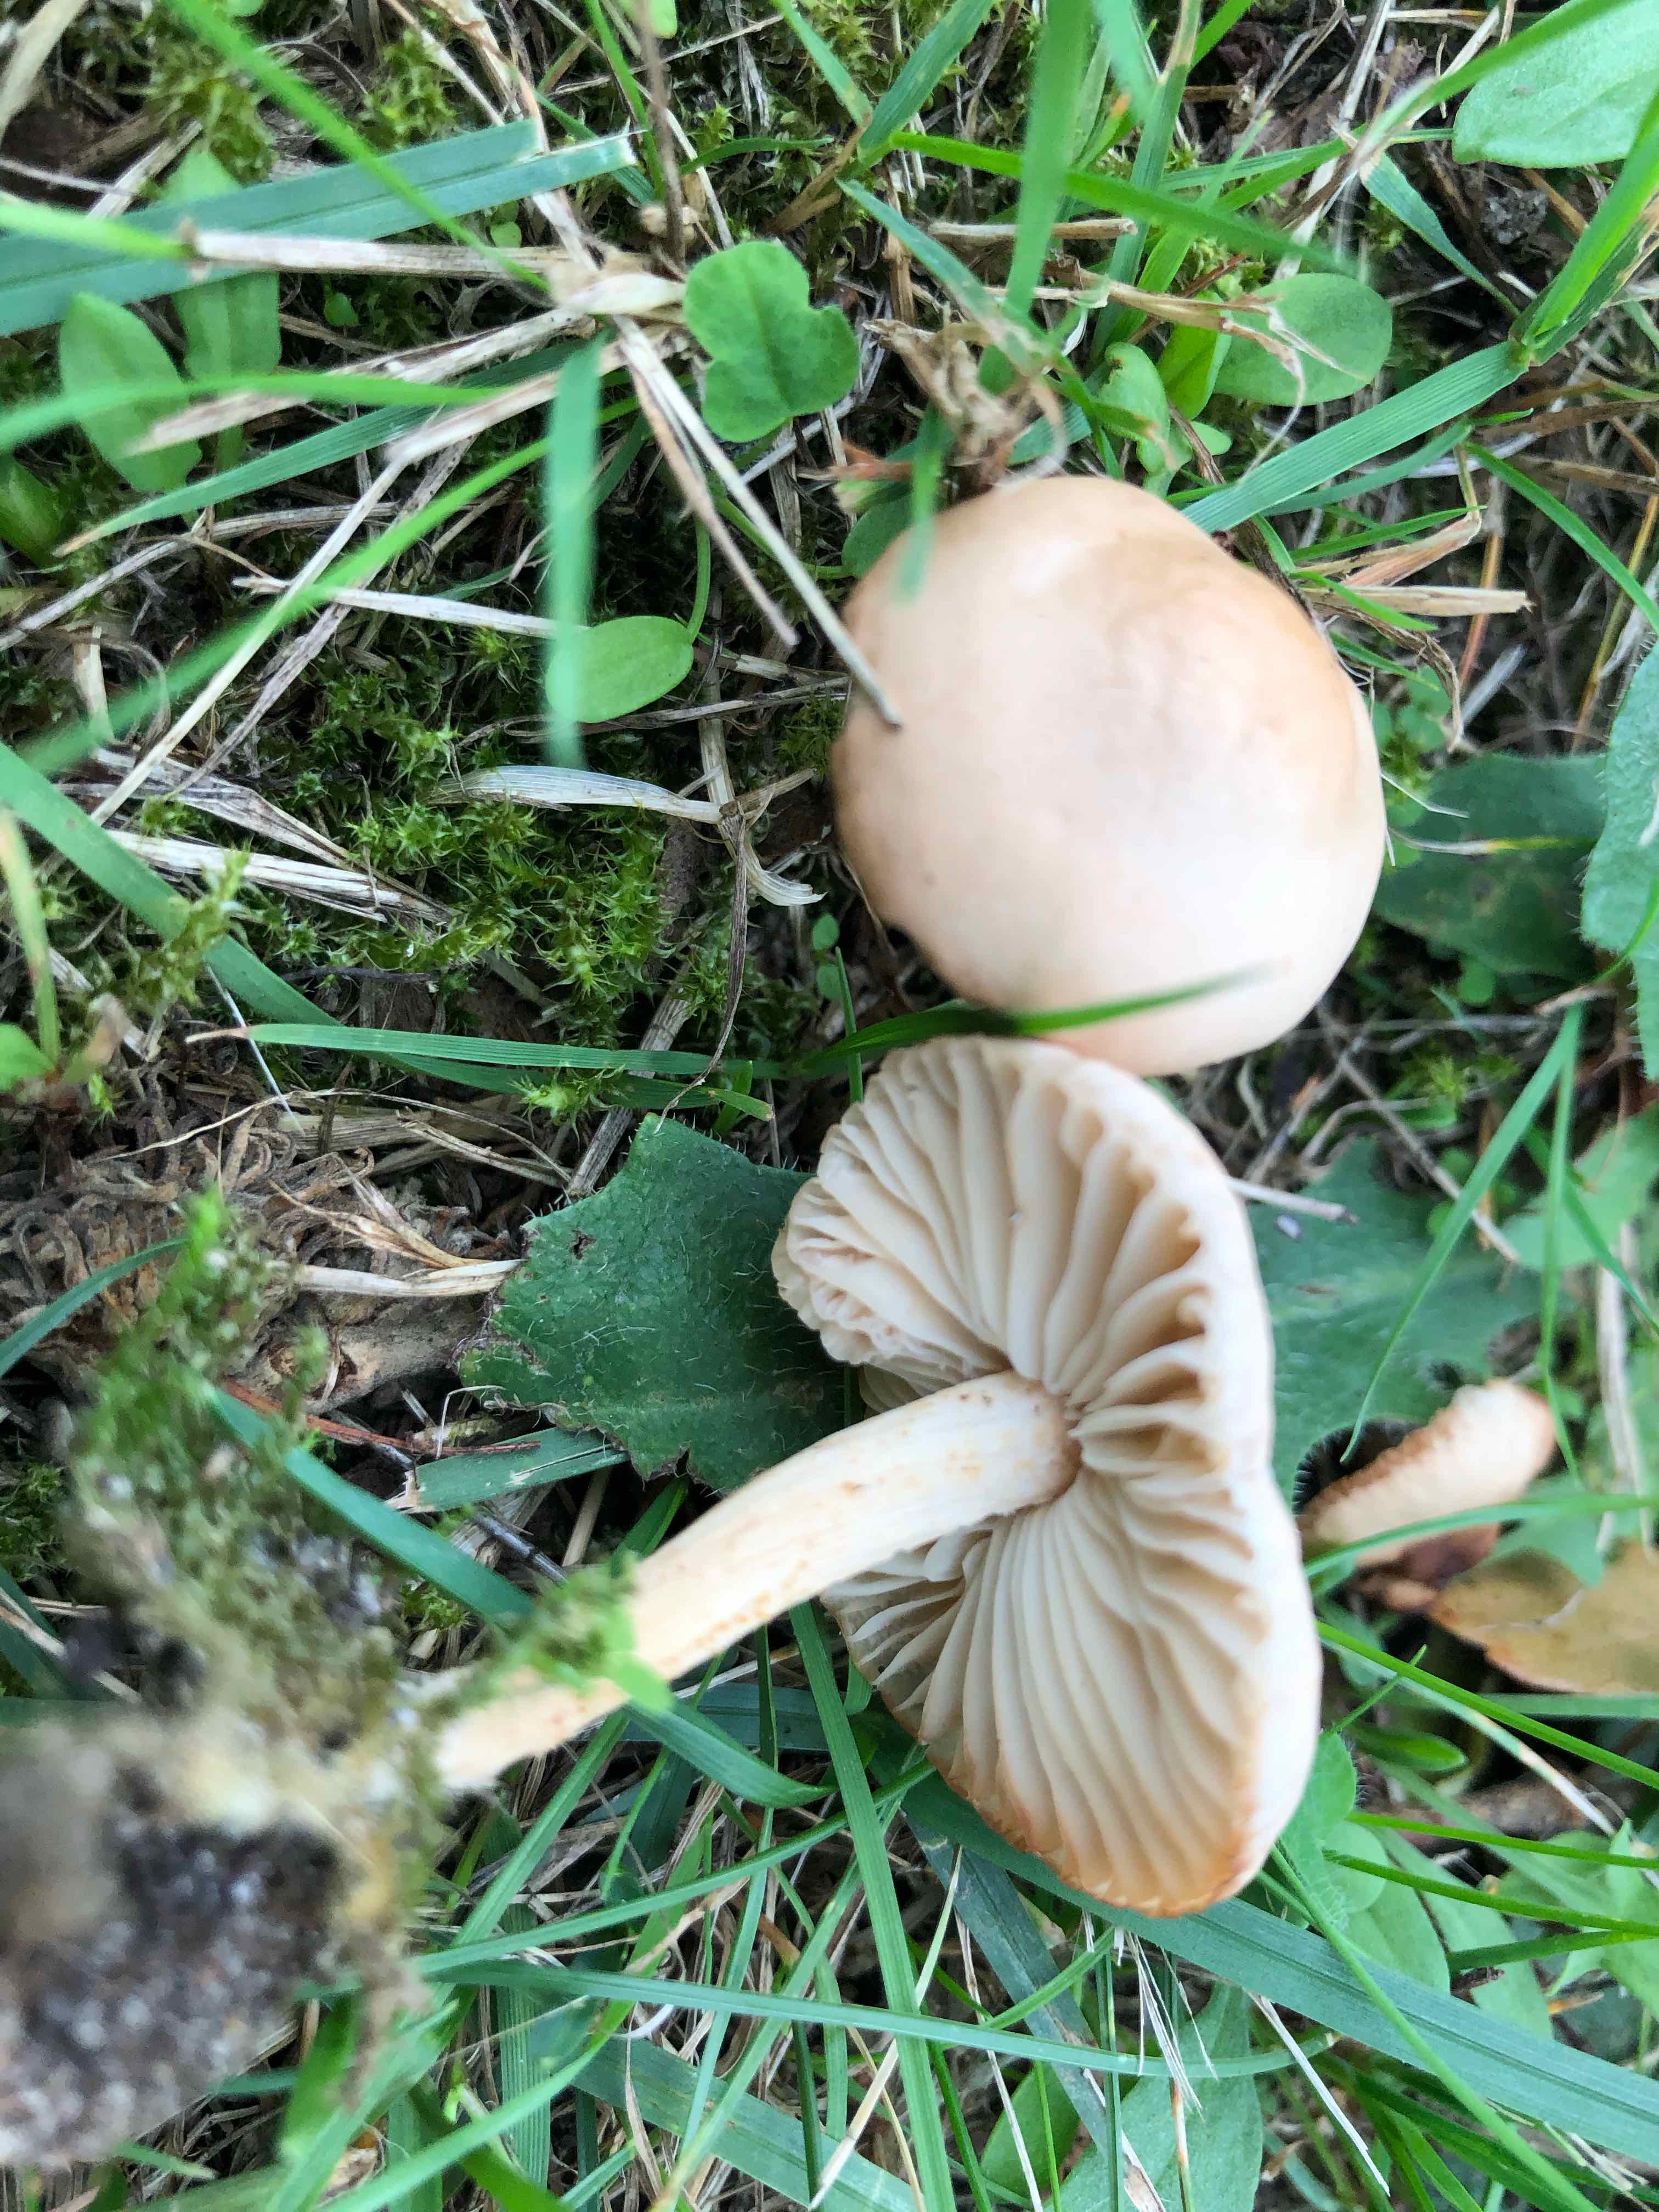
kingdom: Fungi
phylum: Basidiomycota
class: Agaricomycetes
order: Agaricales
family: Marasmiaceae
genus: Marasmius
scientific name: Marasmius oreades
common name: elledans-bruskhat
